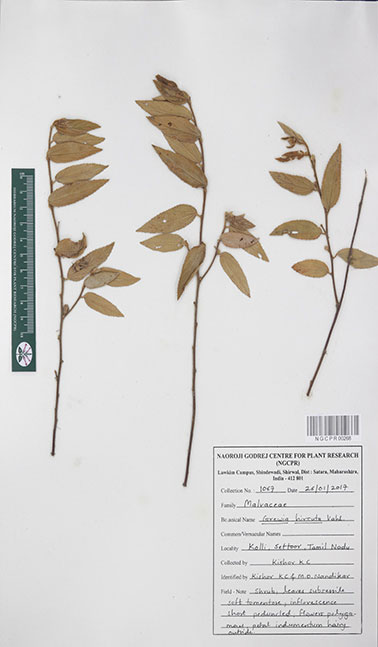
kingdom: Plantae
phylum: Tracheophyta
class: Magnoliopsida
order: Malvales
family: Malvaceae
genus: Grewia
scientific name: Grewia hirsuta
